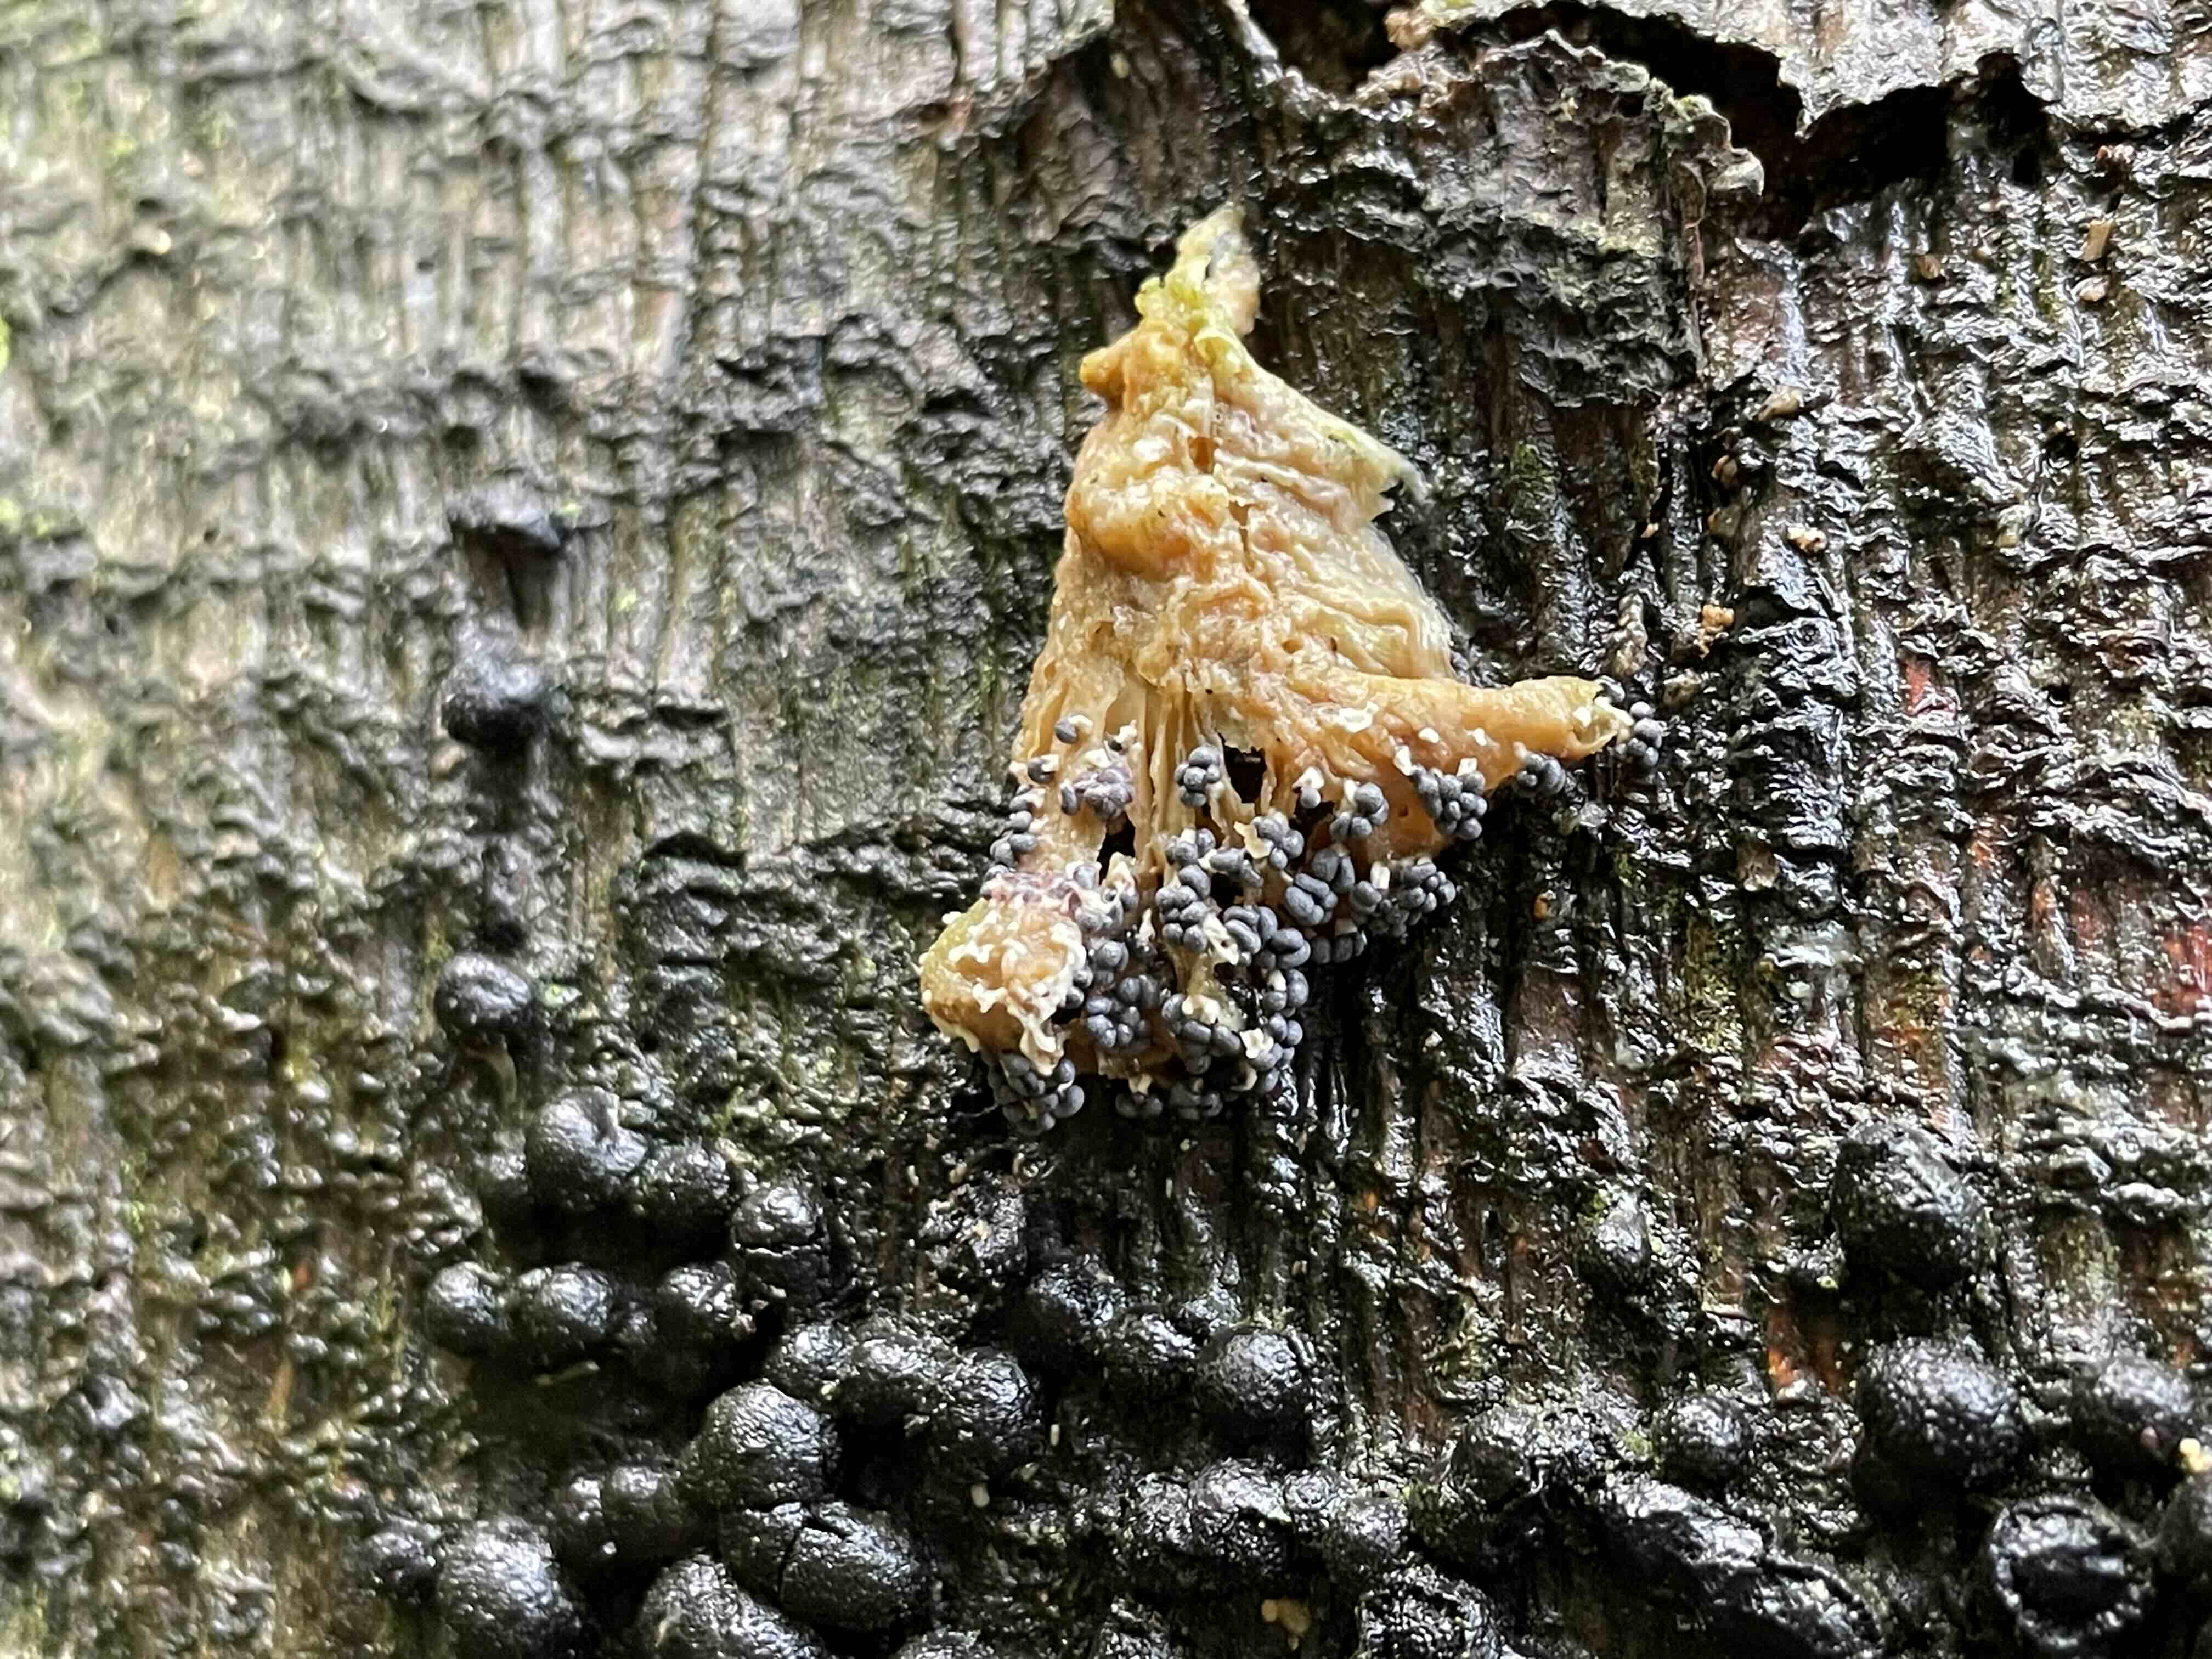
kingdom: Protozoa
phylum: Mycetozoa
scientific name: Mycetozoa
